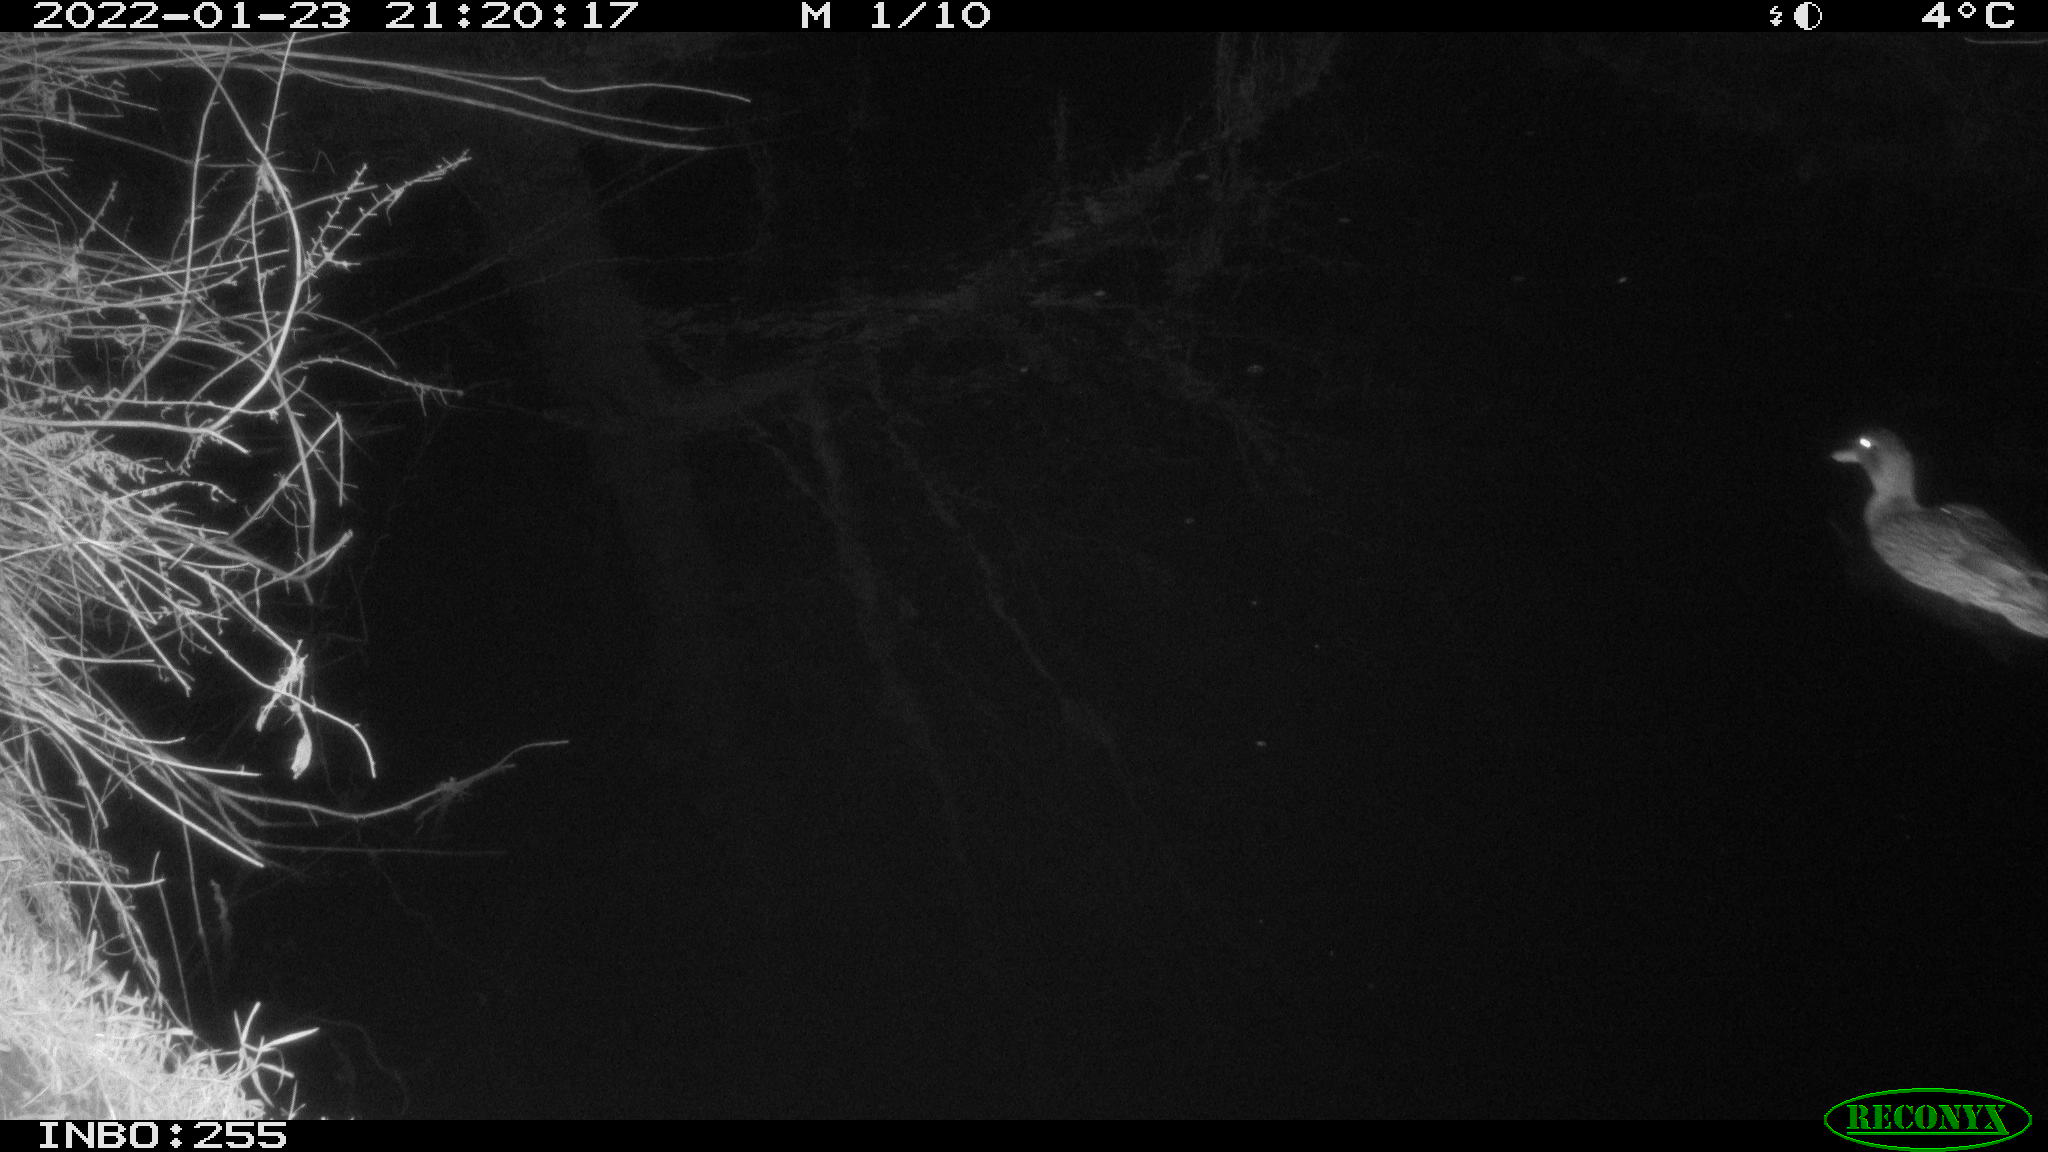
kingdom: Animalia
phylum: Chordata
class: Aves
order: Anseriformes
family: Anatidae
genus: Anas
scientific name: Anas
